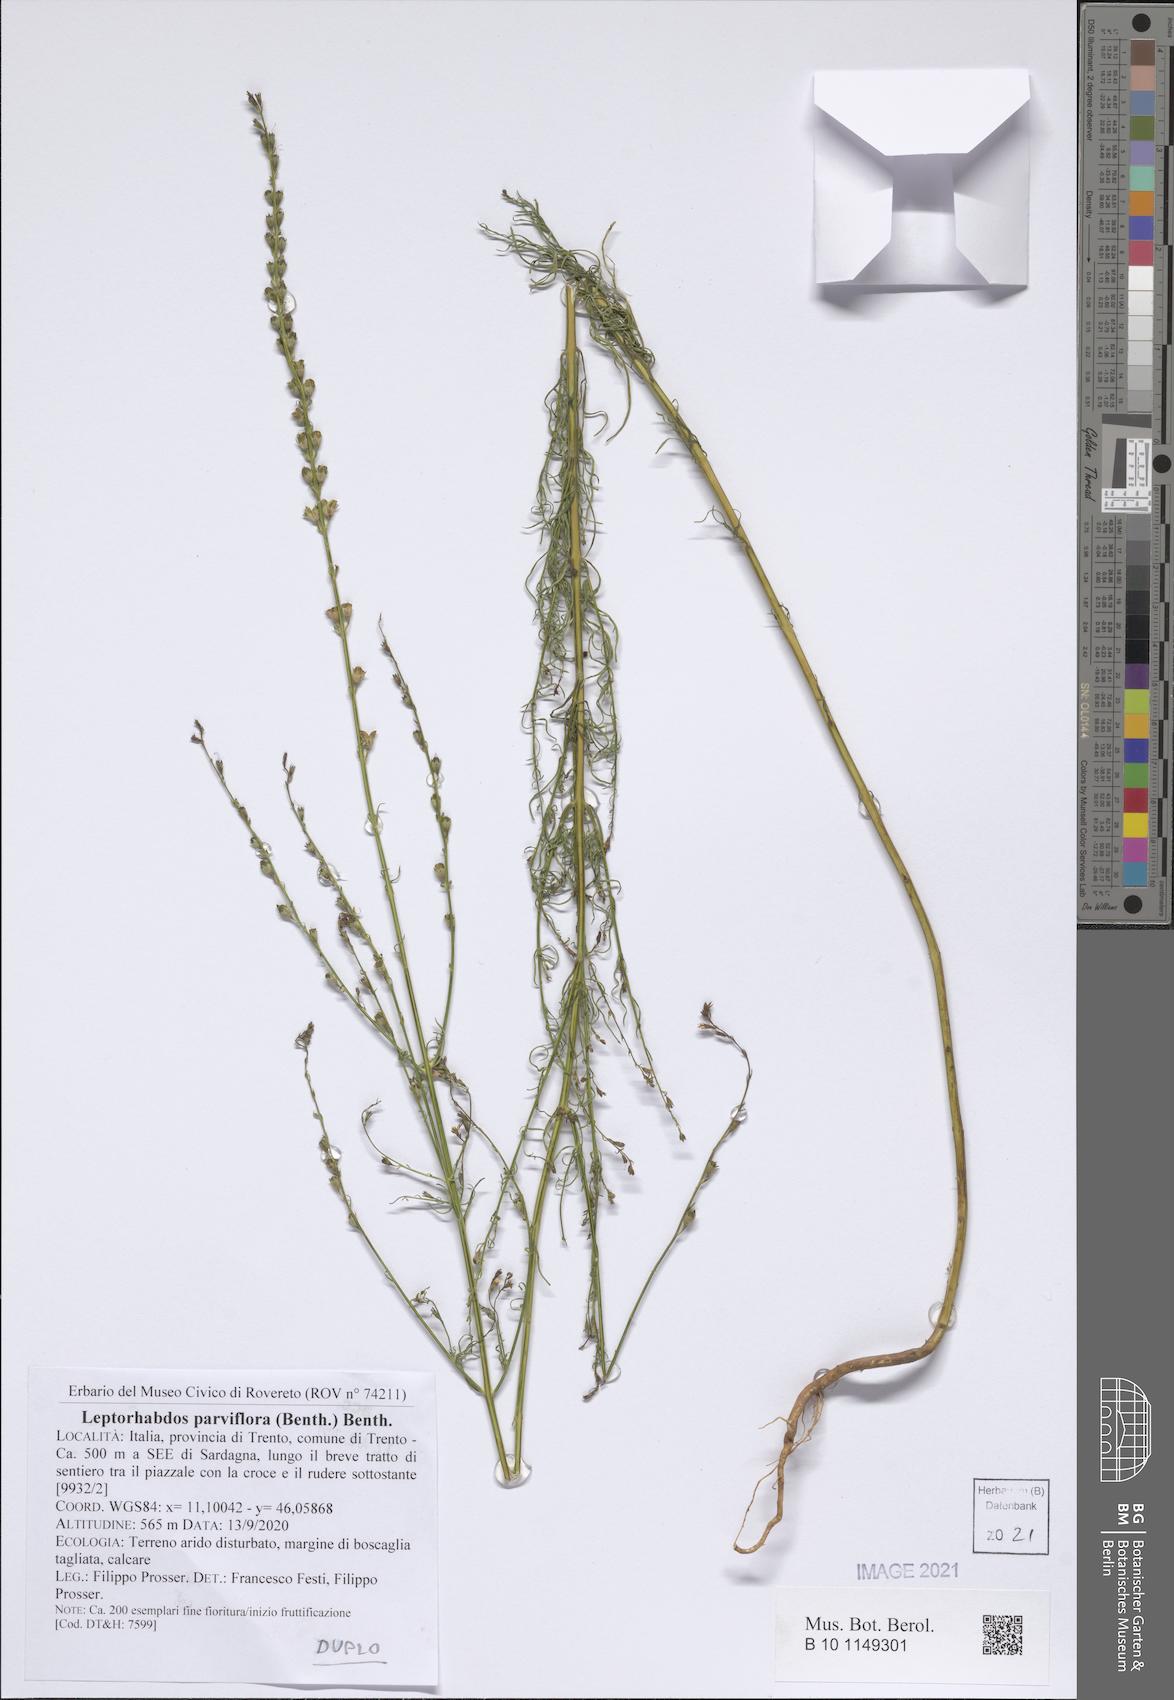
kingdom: Plantae
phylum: Tracheophyta
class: Magnoliopsida
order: Lamiales
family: Orobanchaceae
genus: Leptorhabdos
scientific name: Leptorhabdos parviflora
